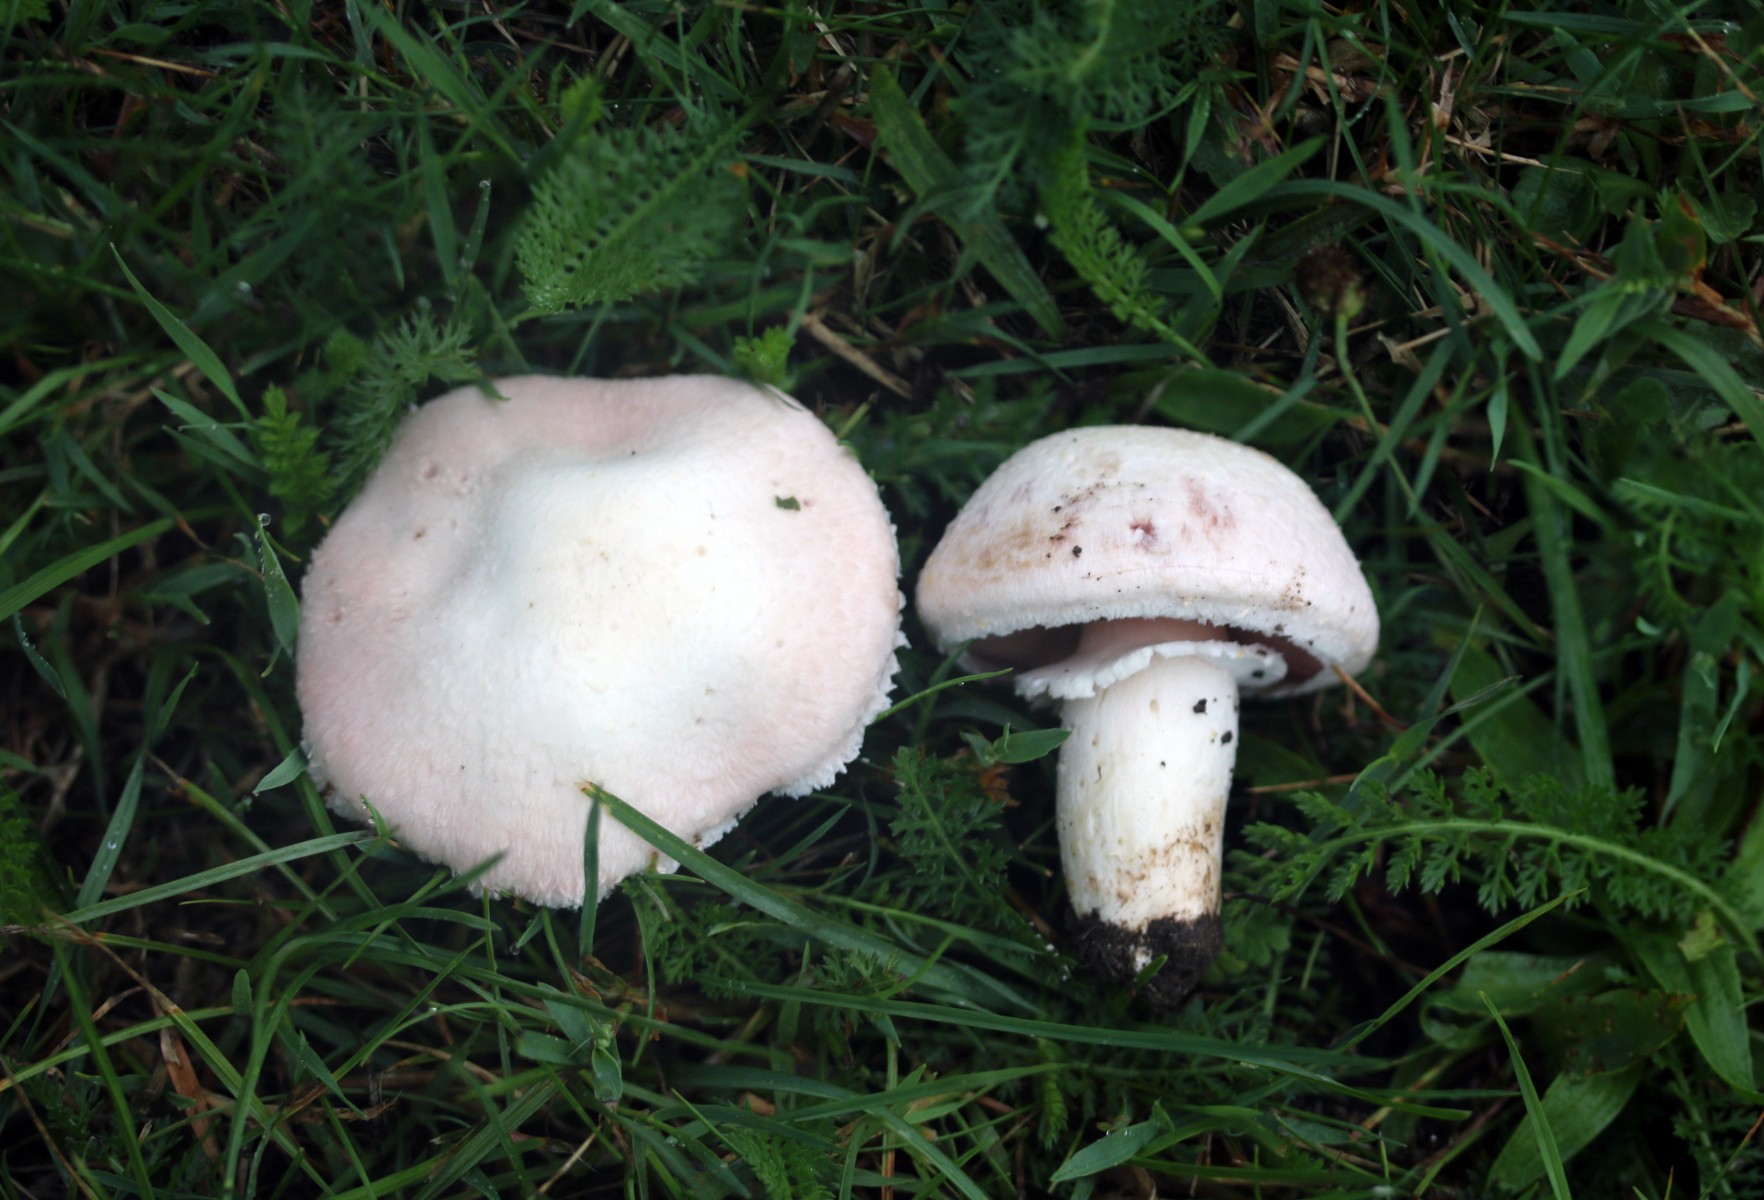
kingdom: Fungi
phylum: Basidiomycota
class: Agaricomycetes
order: Agaricales
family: Agaricaceae
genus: Agaricus
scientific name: Agaricus campestris
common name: mark-champignon
